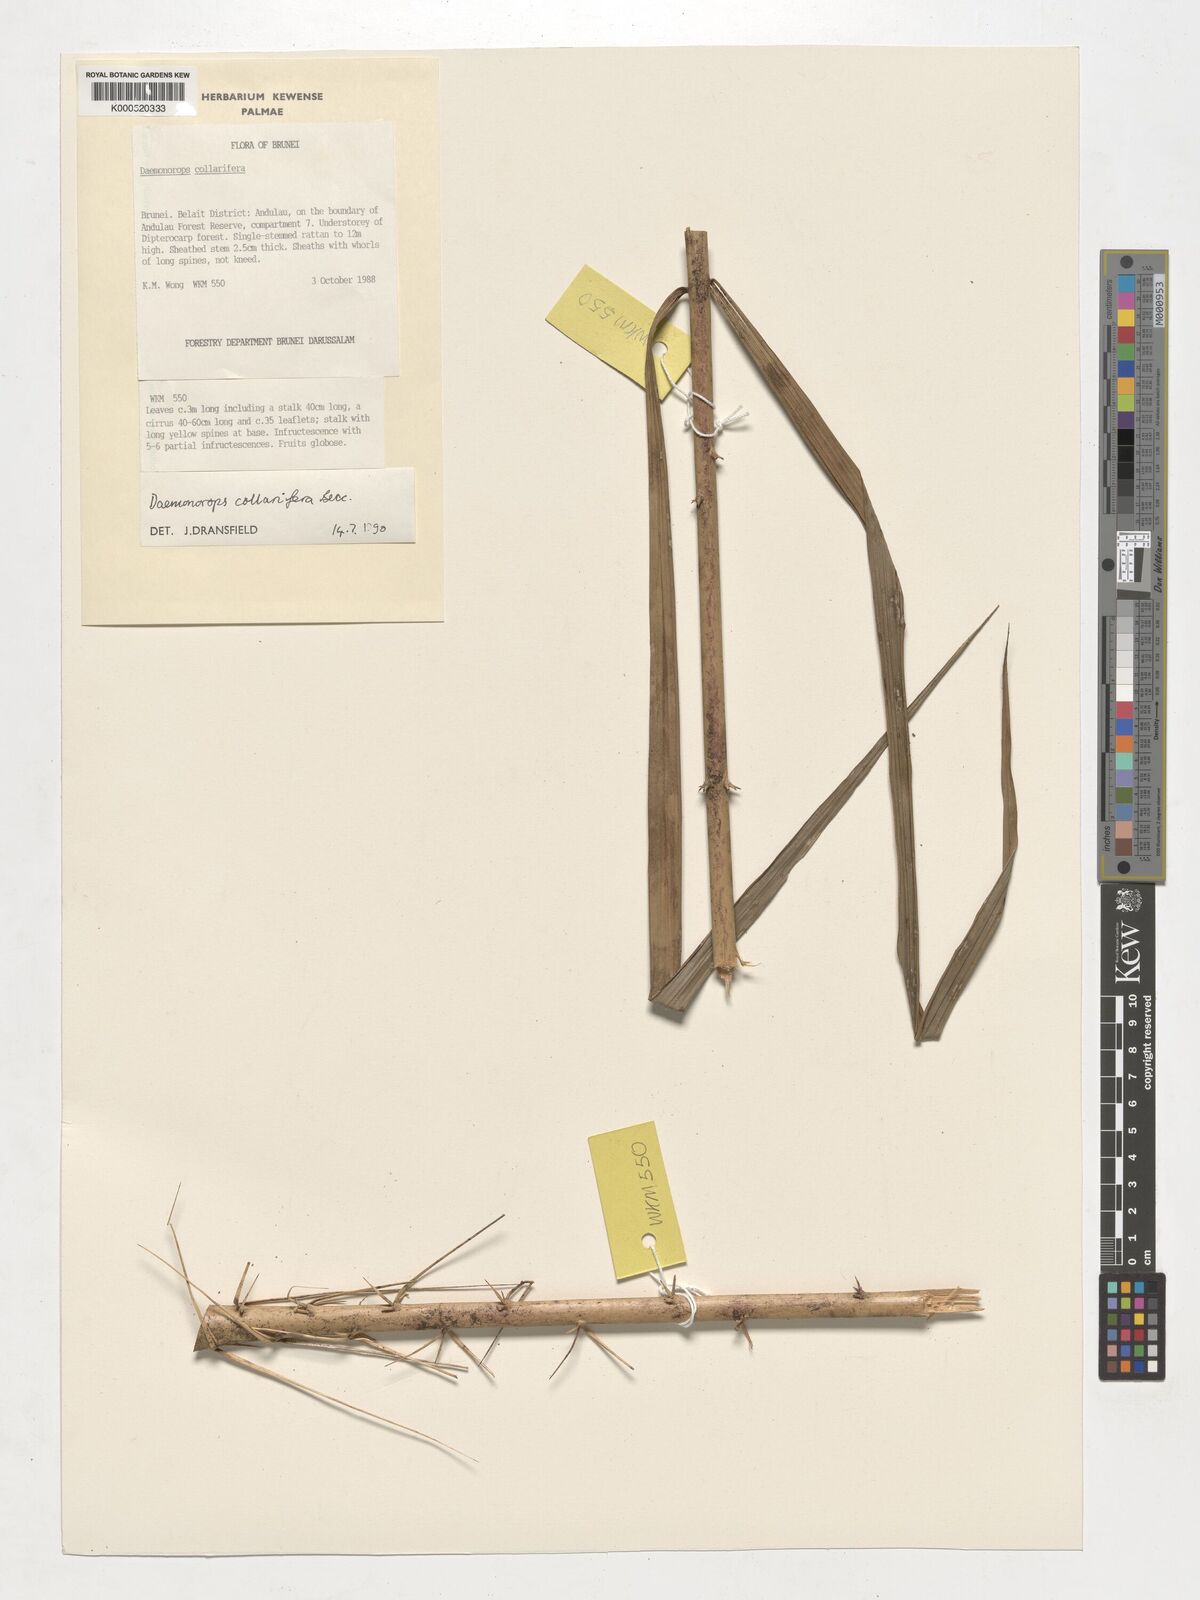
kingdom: Plantae
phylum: Tracheophyta
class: Liliopsida
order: Arecales
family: Arecaceae
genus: Calamus
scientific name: Calamus geniculatus
